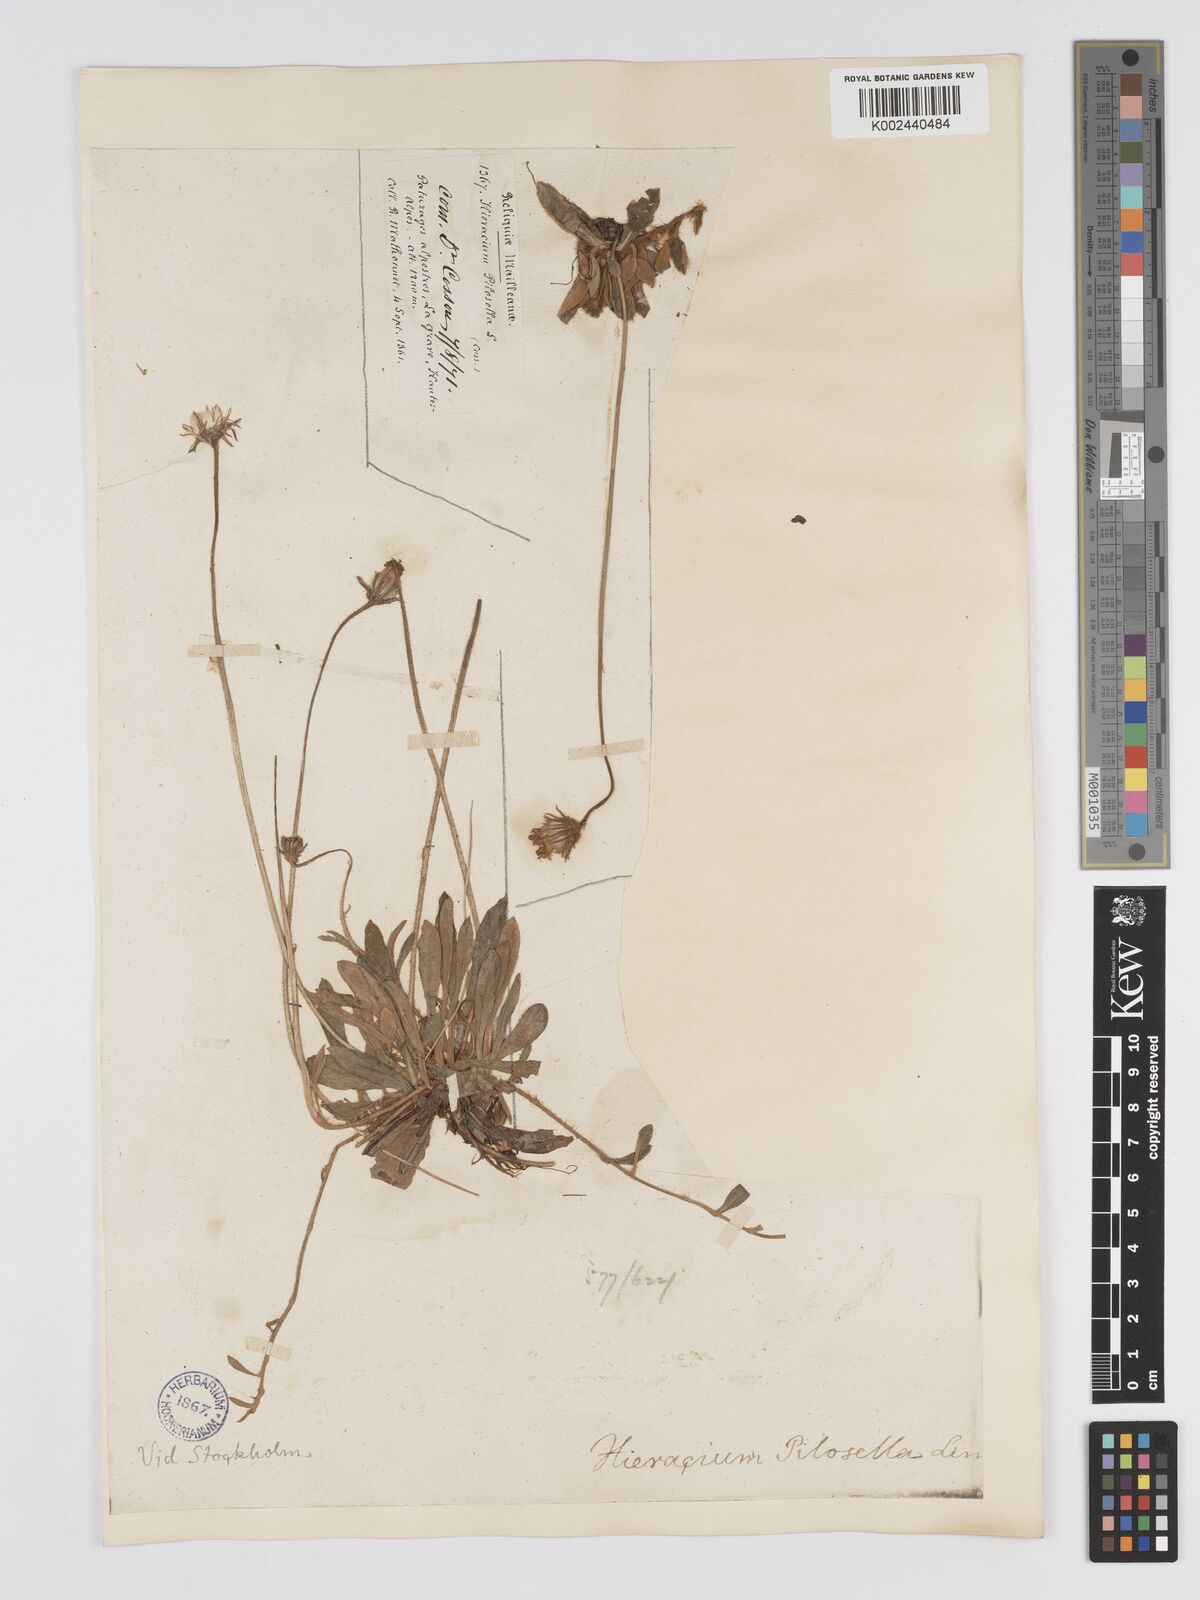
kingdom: Plantae
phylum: Tracheophyta
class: Magnoliopsida
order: Asterales
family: Asteraceae
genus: Pilosella
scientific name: Pilosella velutina
